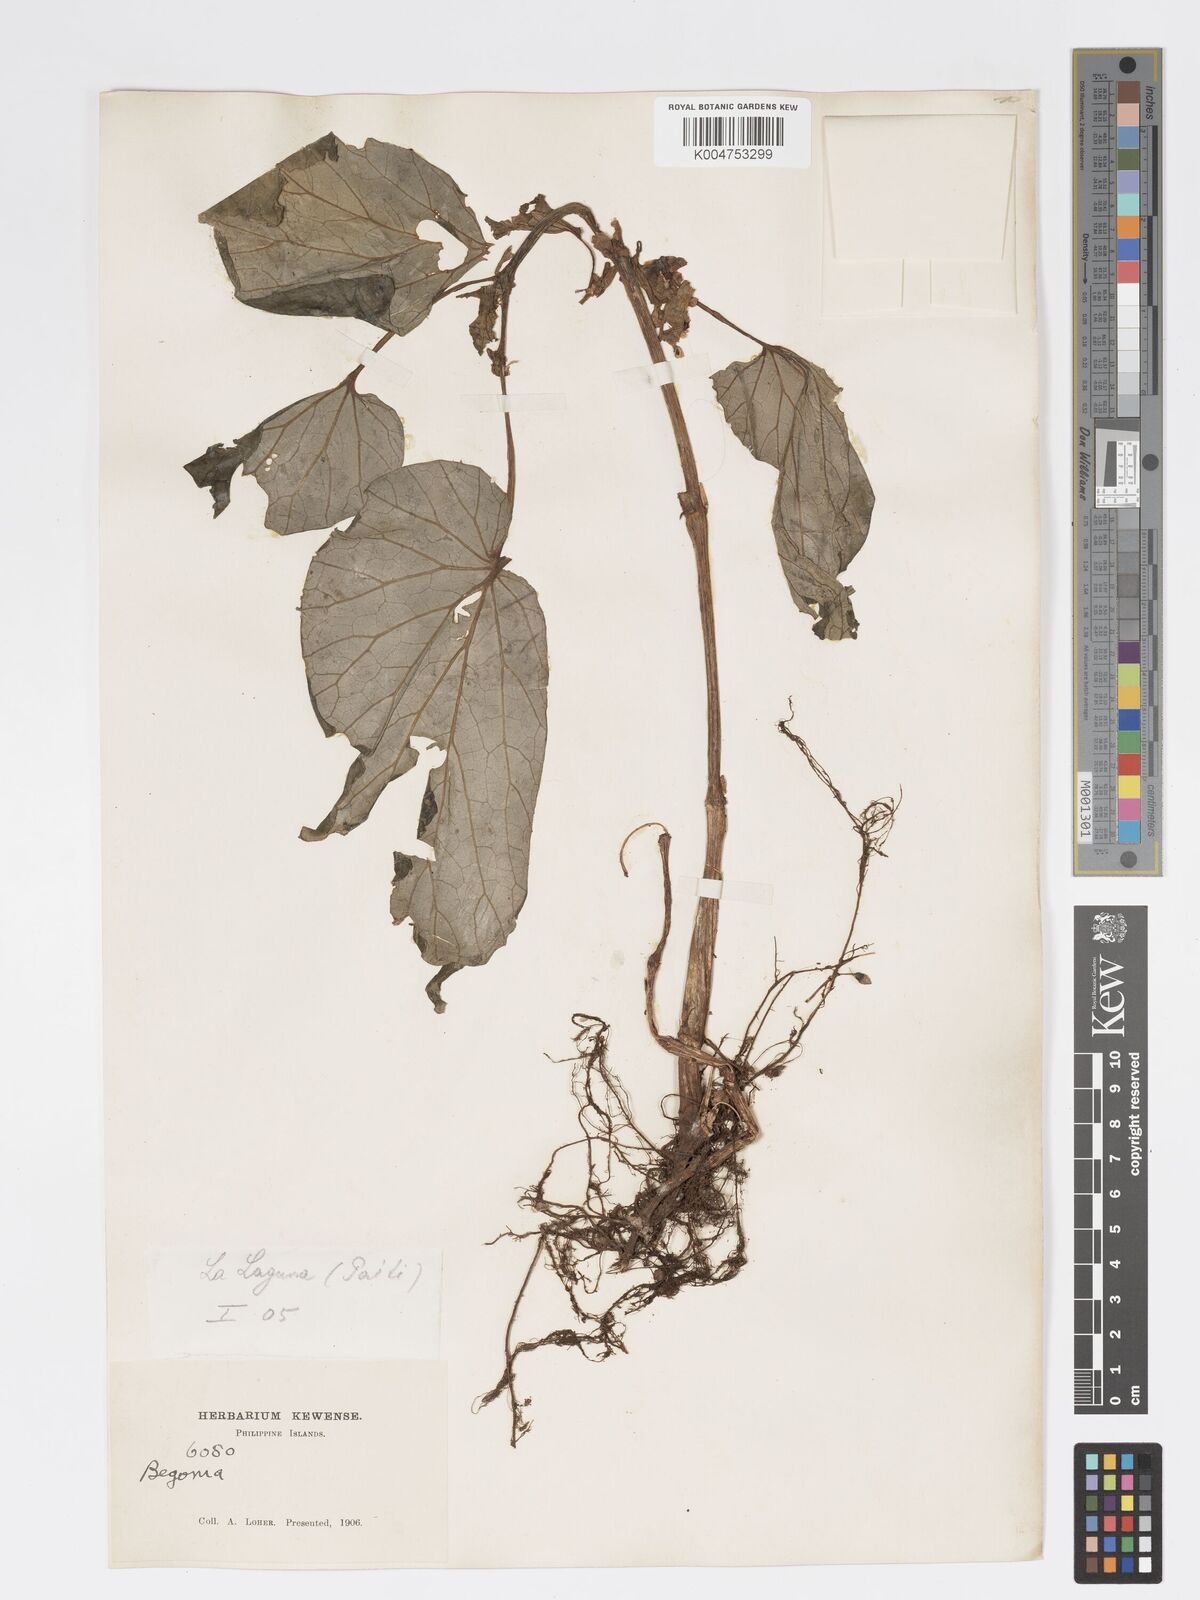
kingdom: Plantae
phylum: Tracheophyta
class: Magnoliopsida
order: Cucurbitales
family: Begoniaceae
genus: Begonia
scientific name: Begonia ramosii
